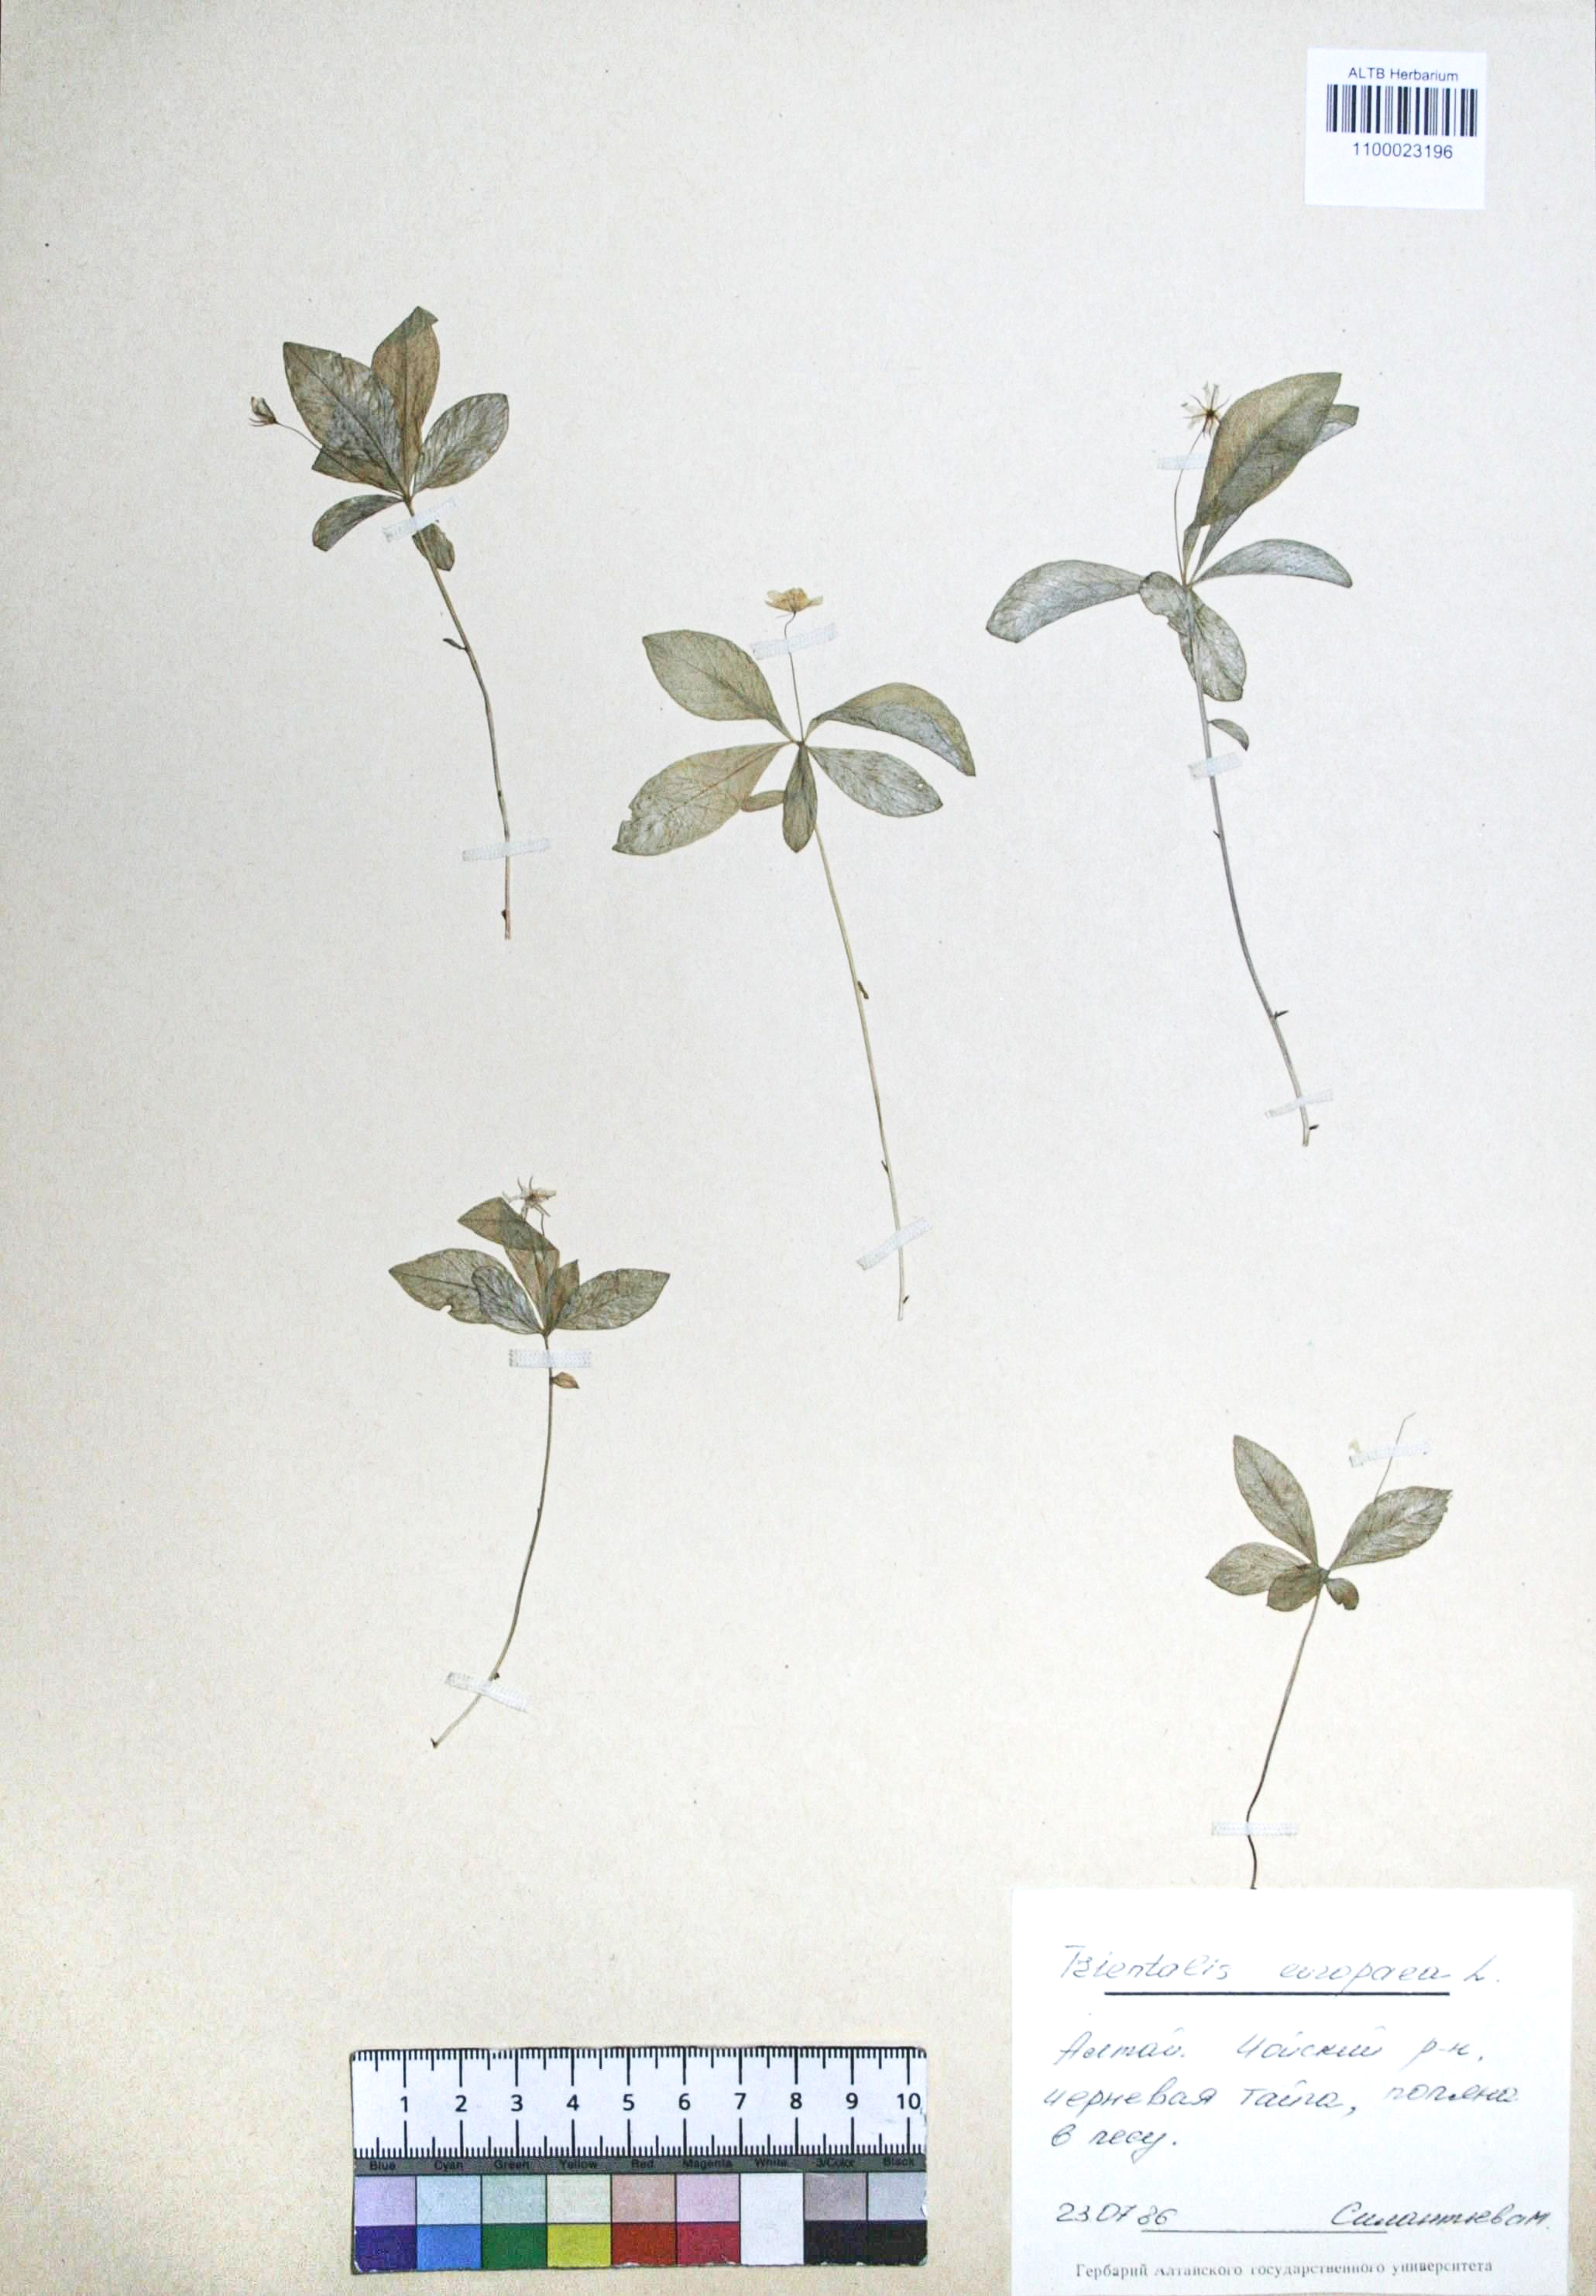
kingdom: Plantae
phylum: Tracheophyta
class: Magnoliopsida
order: Ericales
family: Primulaceae
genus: Lysimachia
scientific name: Lysimachia europaea
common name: Arctic starflower
